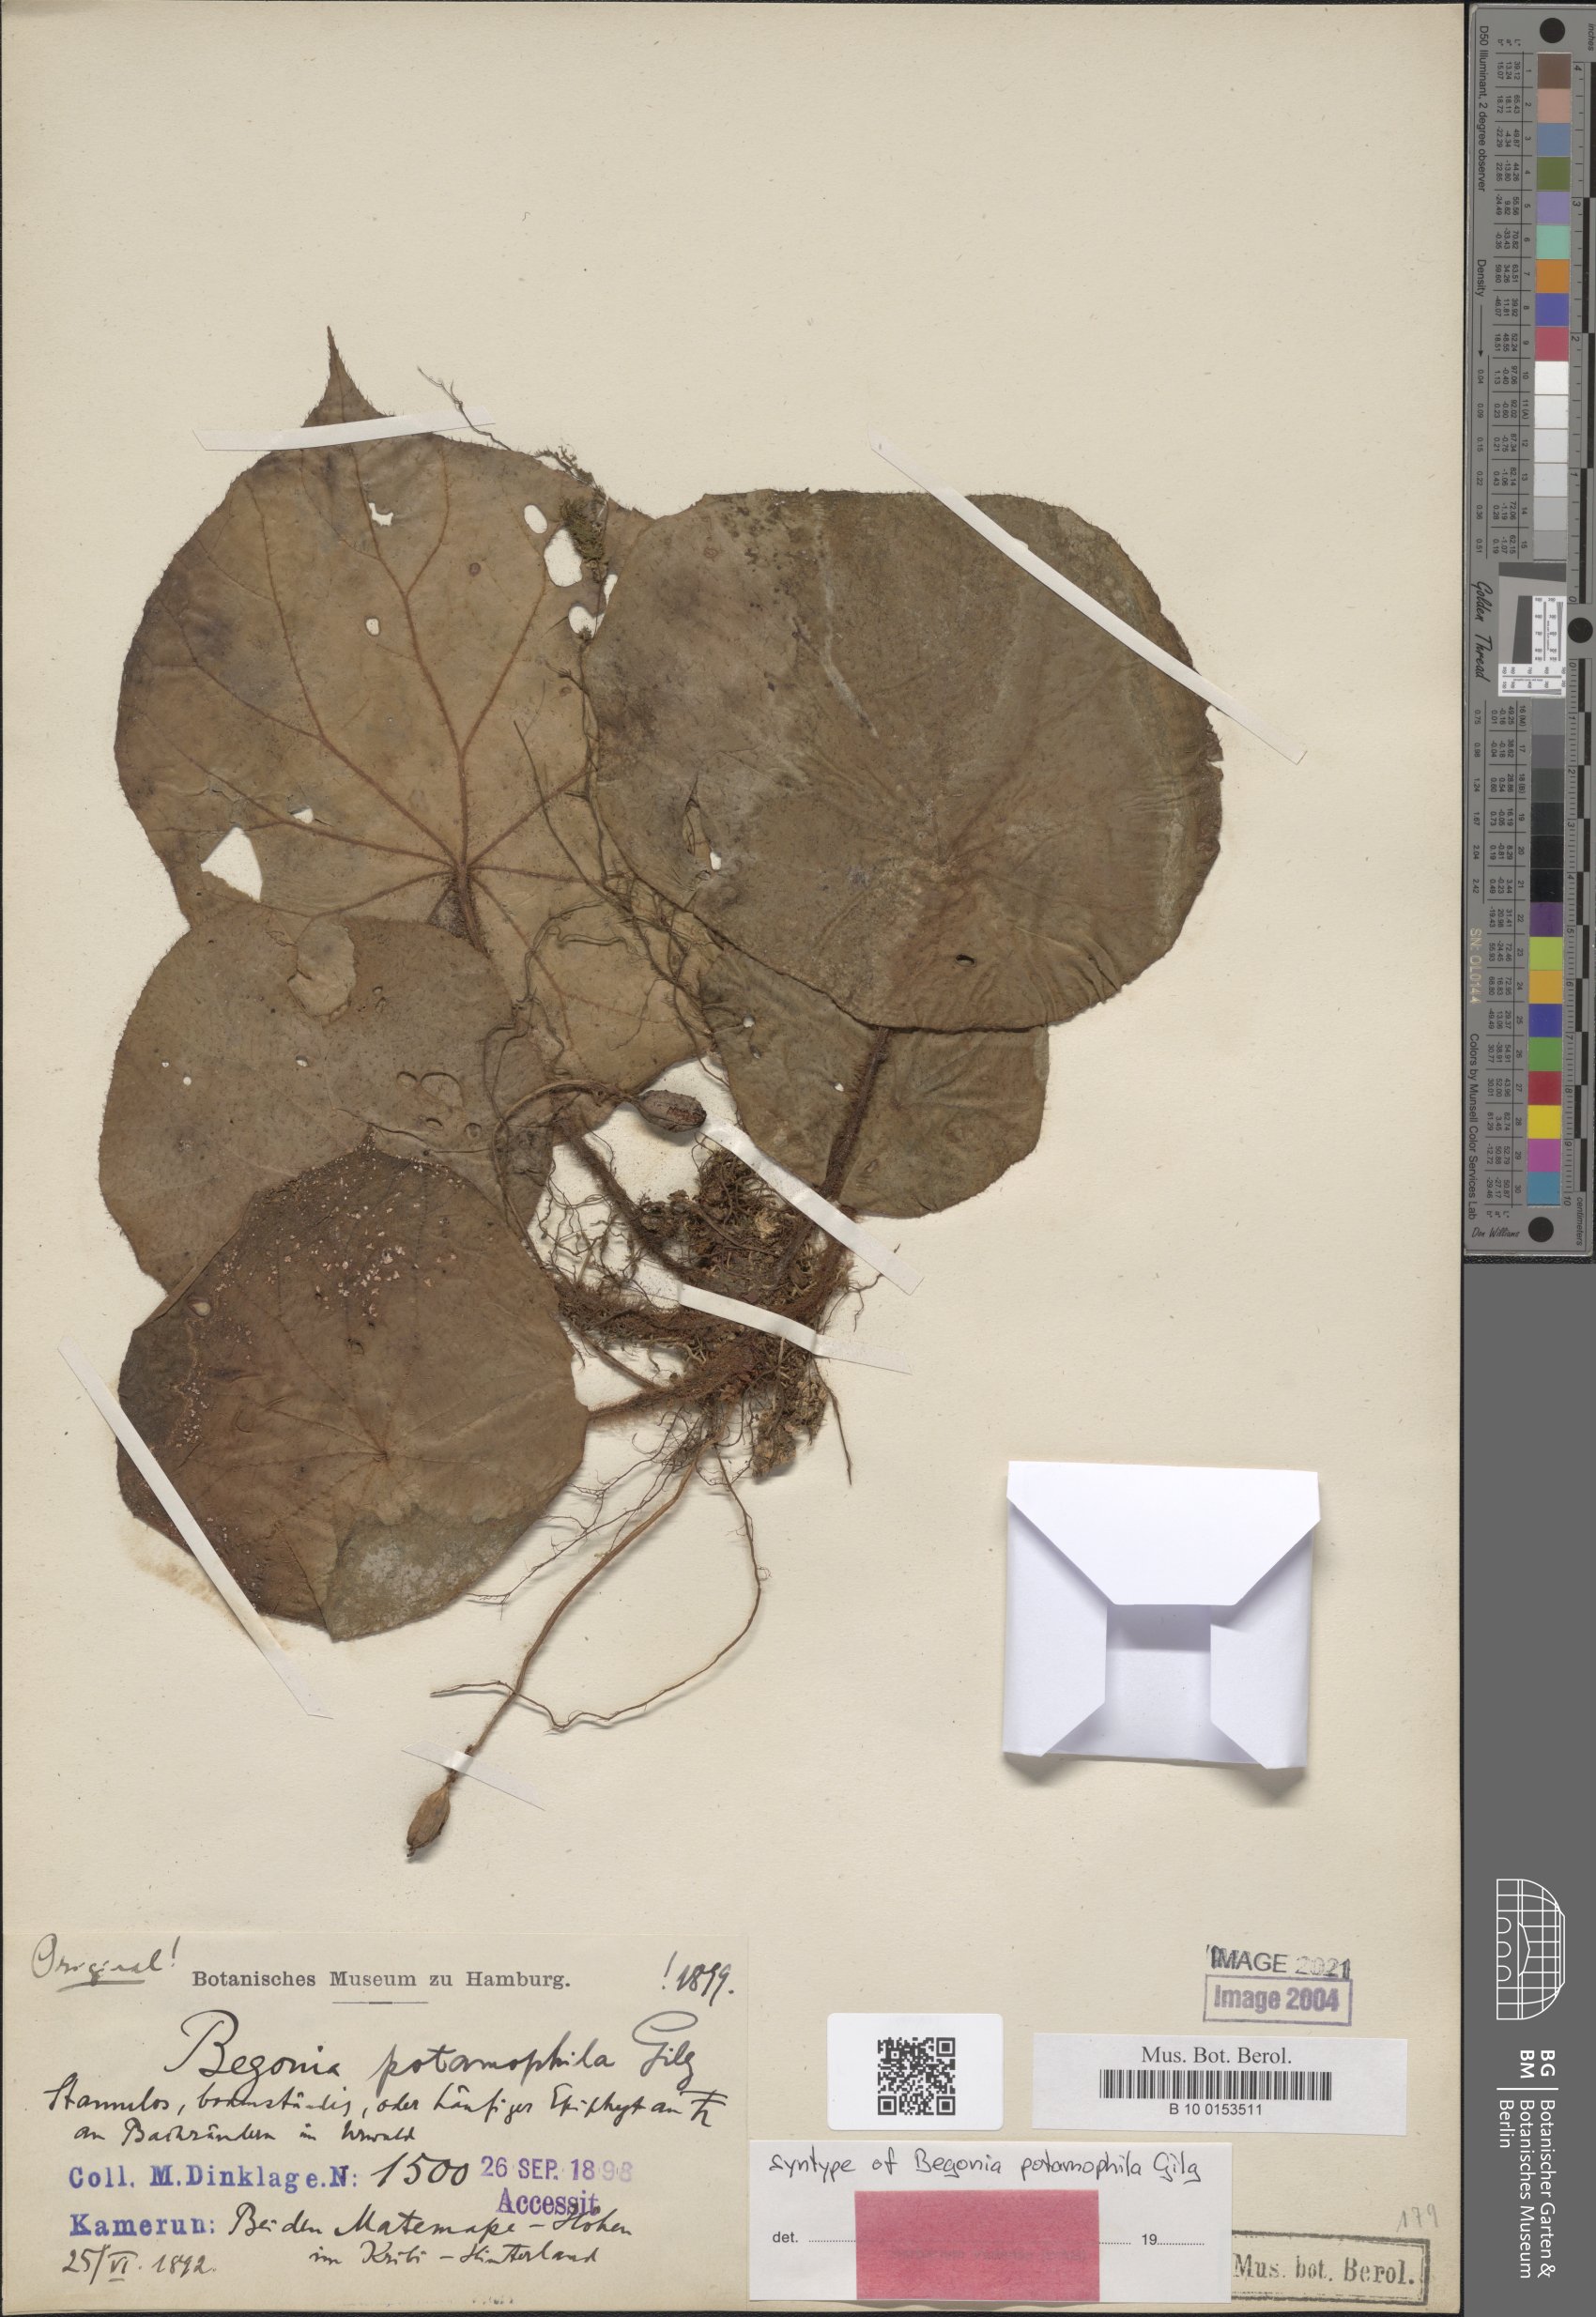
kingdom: Plantae
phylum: Tracheophyta
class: Magnoliopsida
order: Cucurbitales
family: Begoniaceae
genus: Begonia
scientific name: Begonia potamophila
